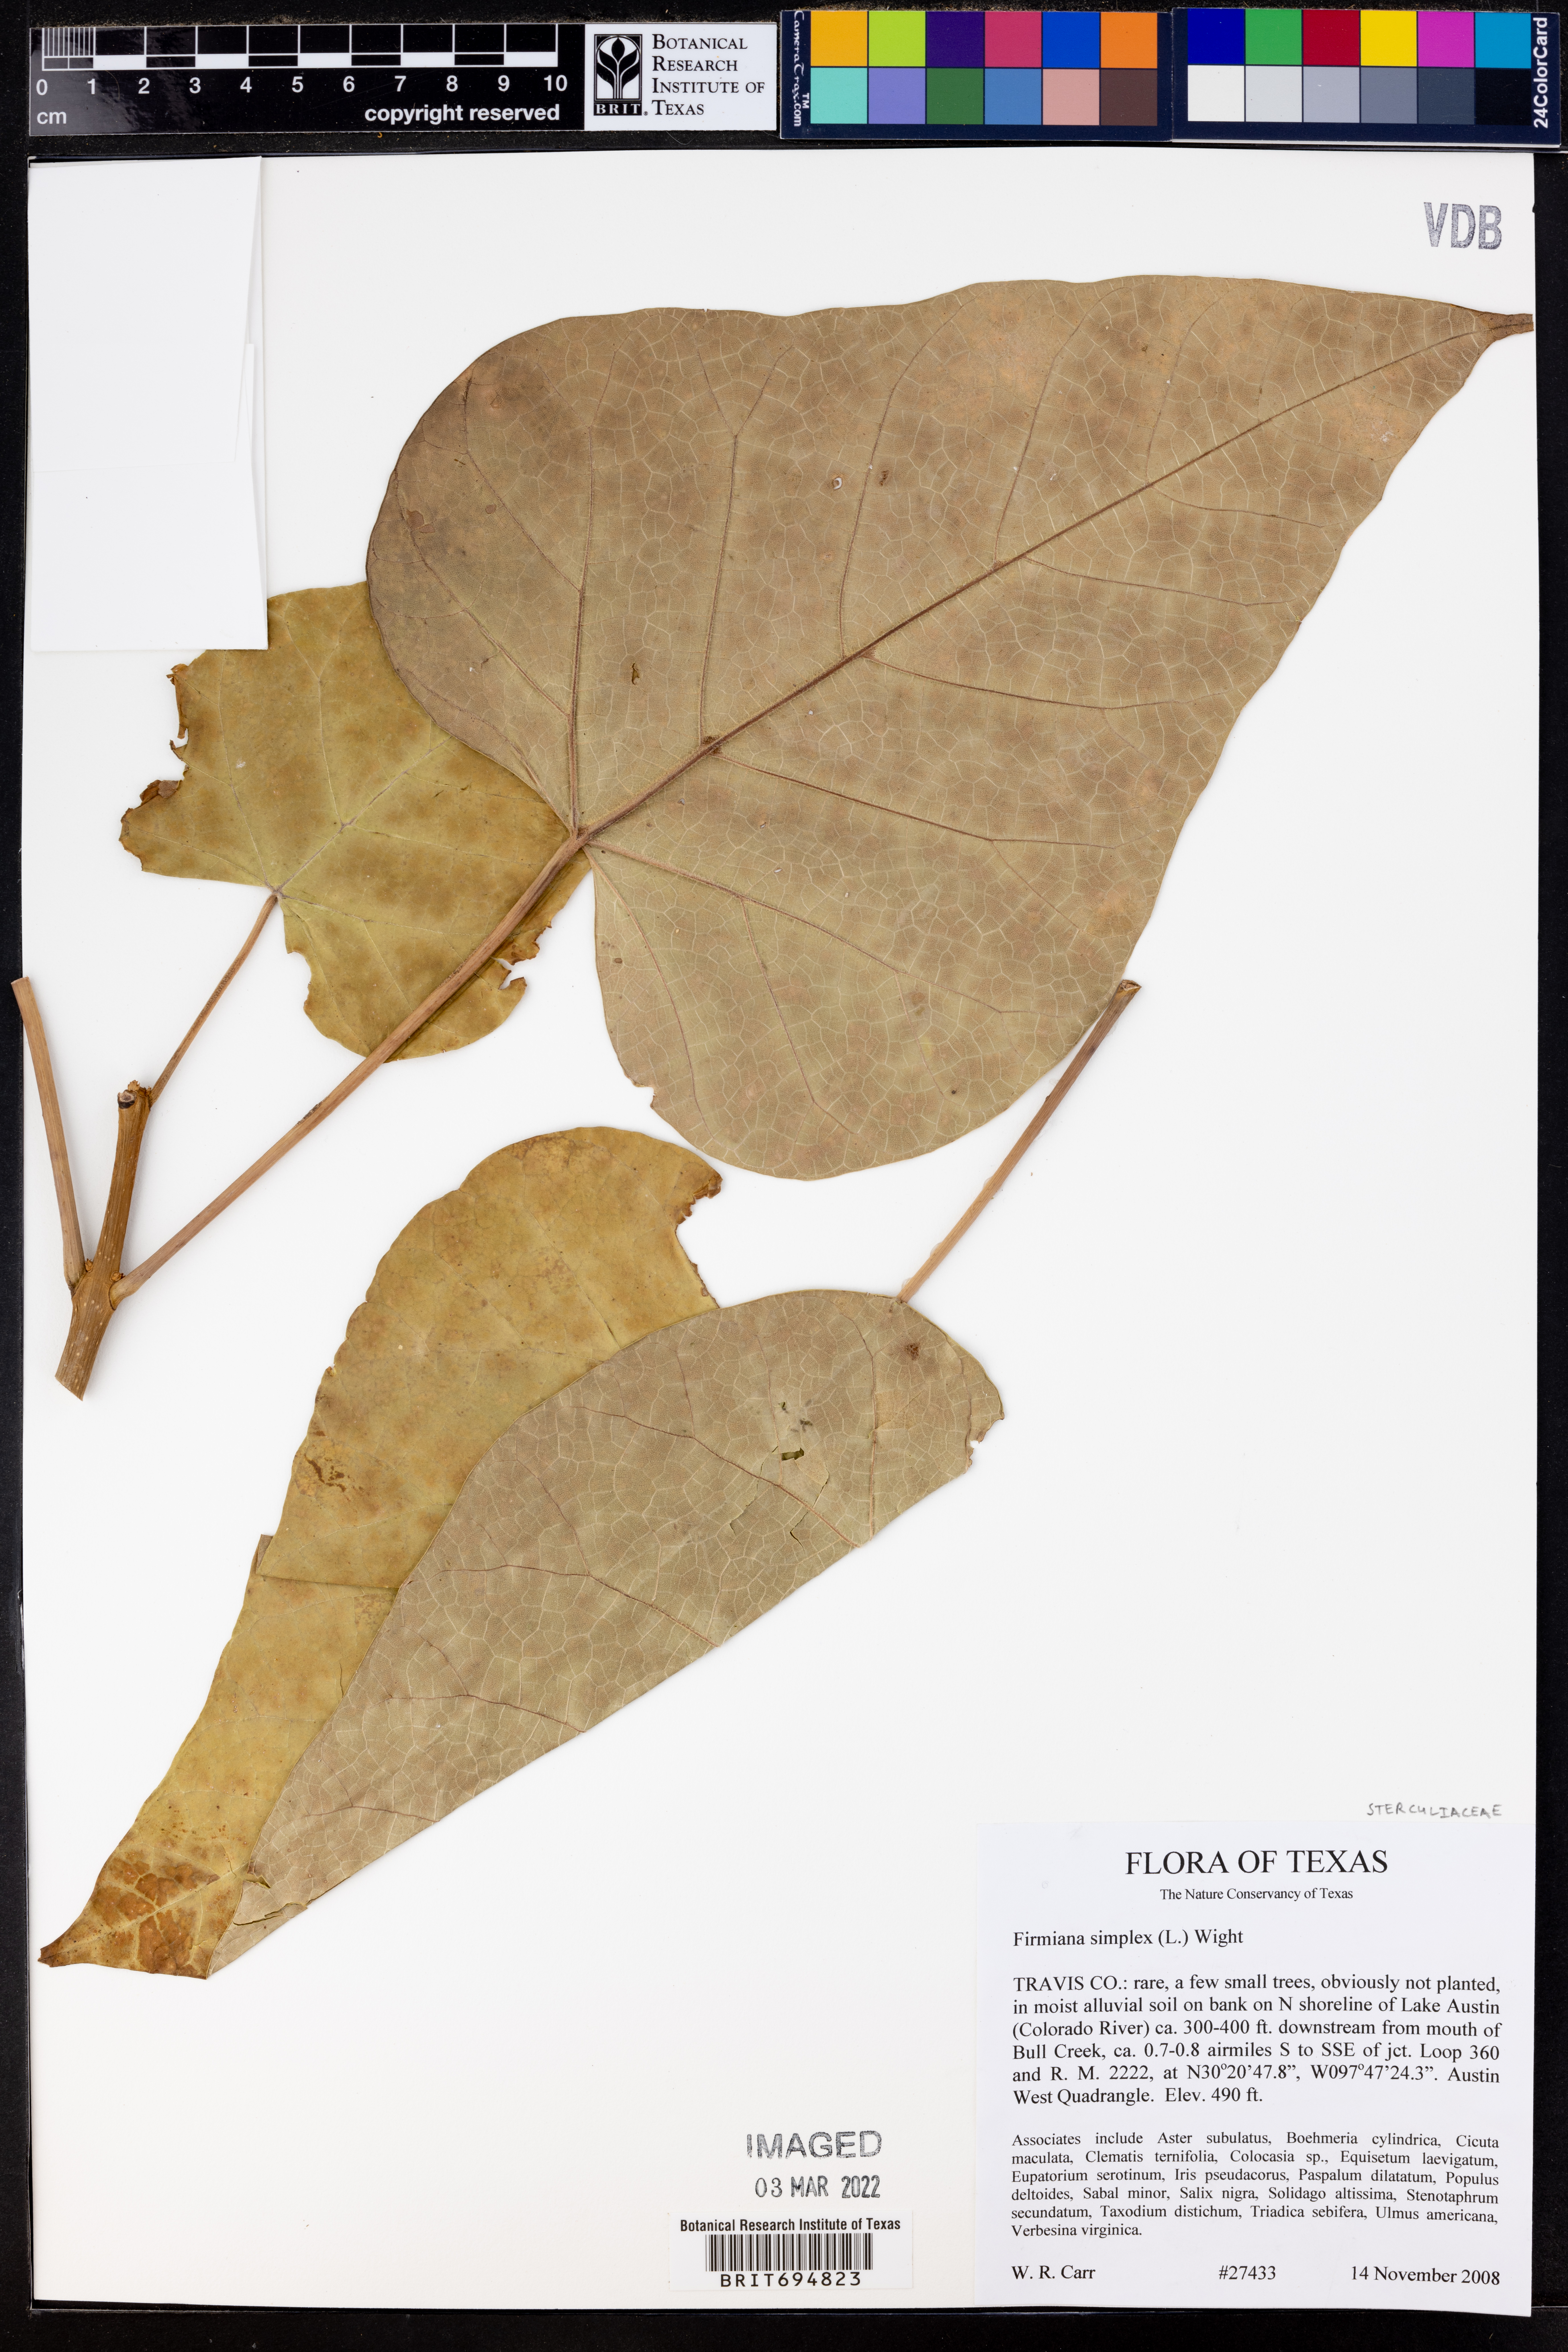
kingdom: Plantae
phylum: Tracheophyta
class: Magnoliopsida
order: Malvales
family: Malvaceae
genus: Firmiana
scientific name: Firmiana simplex
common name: Chinese parasoltree
